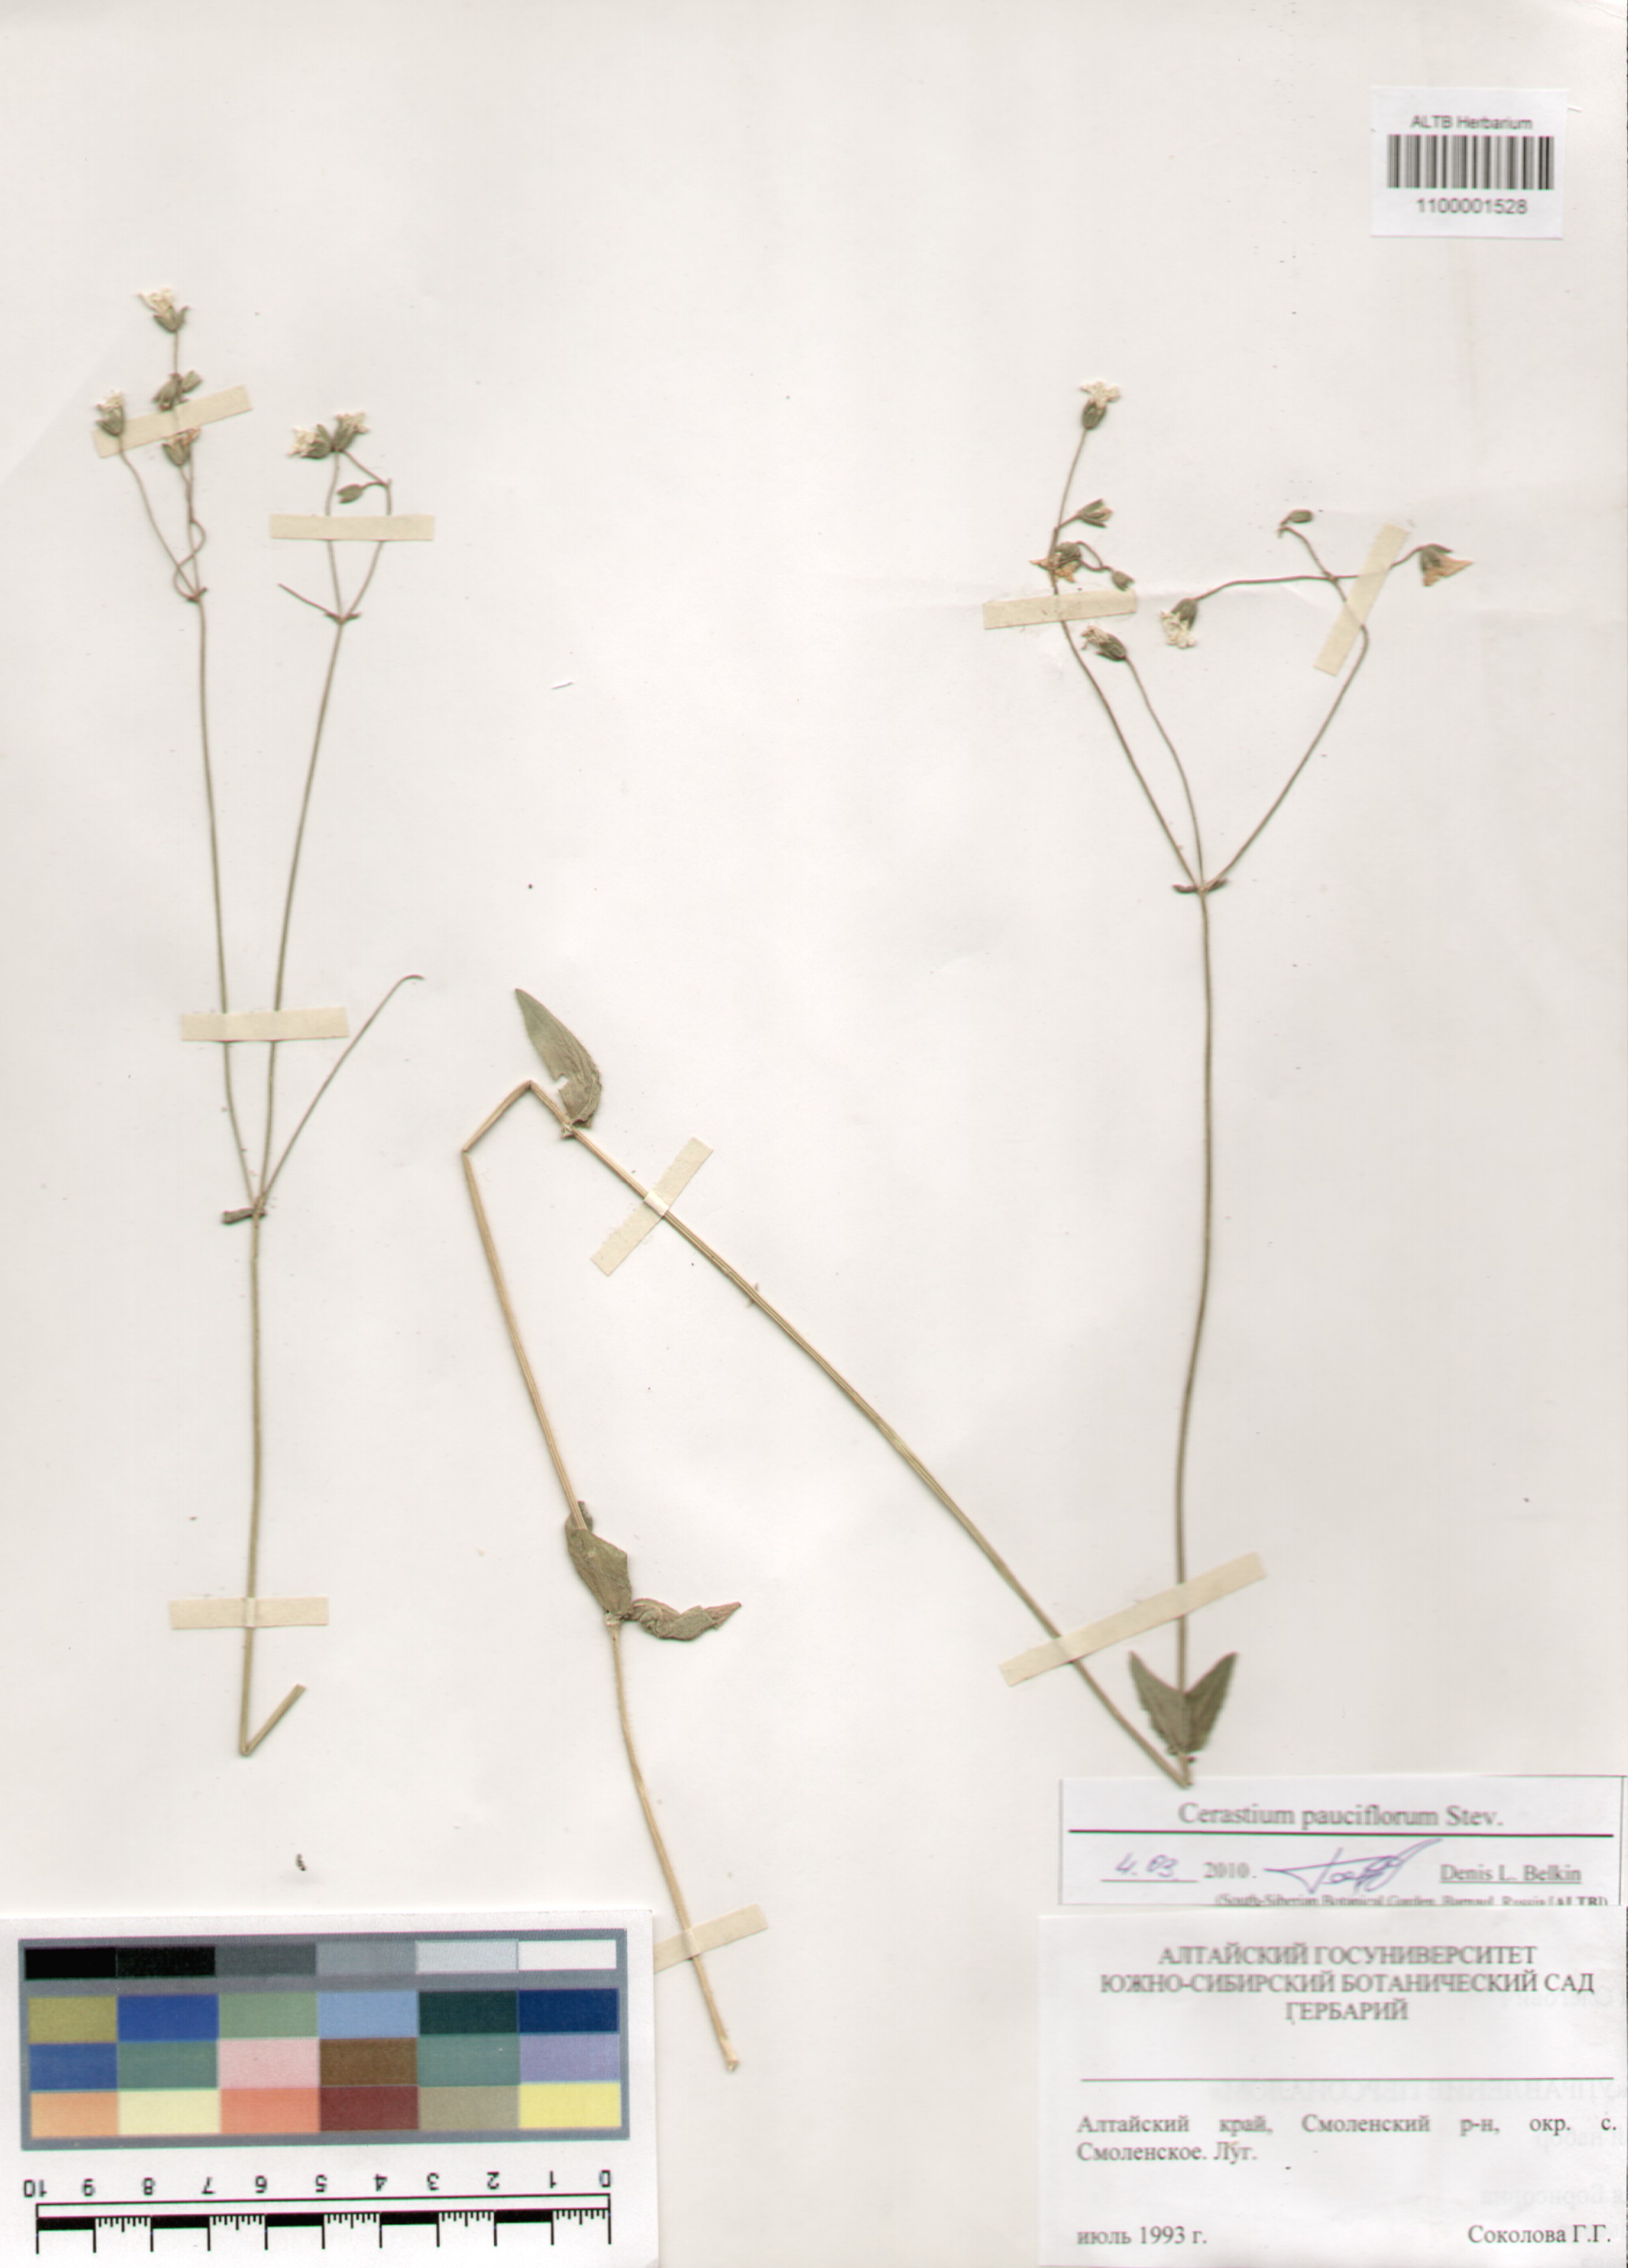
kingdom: Plantae
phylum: Tracheophyta
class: Magnoliopsida
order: Caryophyllales
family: Caryophyllaceae
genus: Cerastium
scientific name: Cerastium pauciflorum
